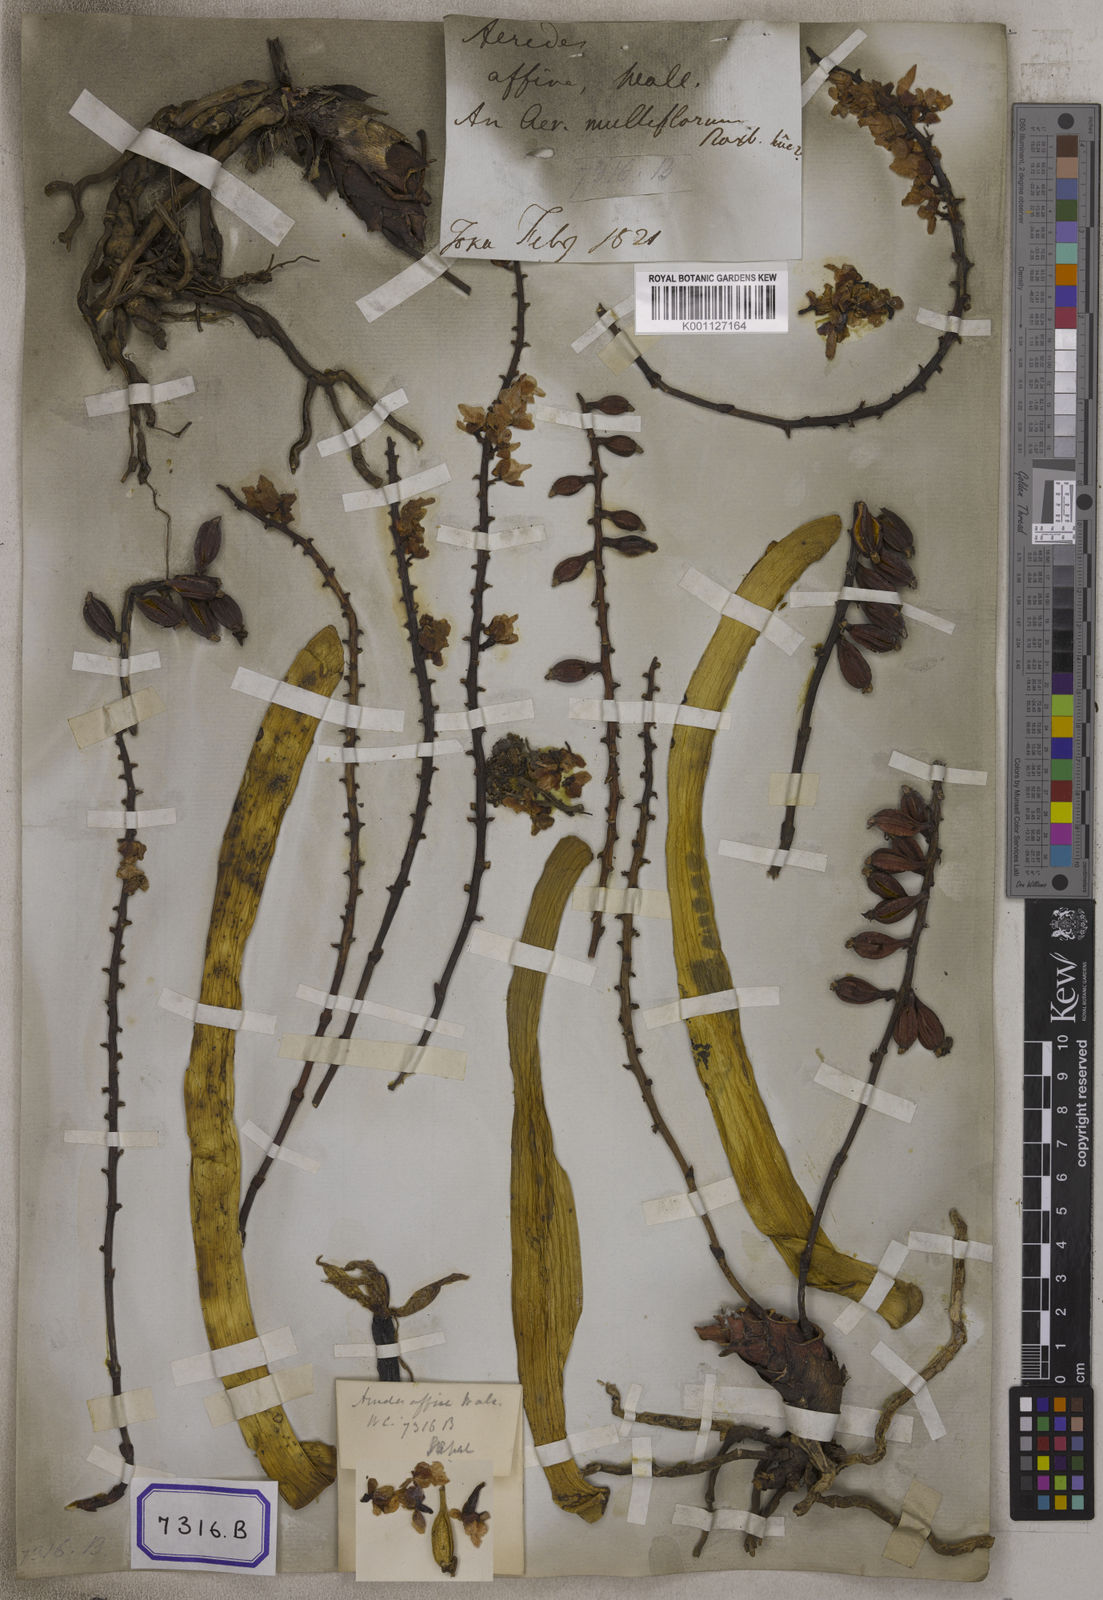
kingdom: Plantae
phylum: Tracheophyta
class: Liliopsida
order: Asparagales
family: Orchidaceae
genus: Aerides
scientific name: Aerides
